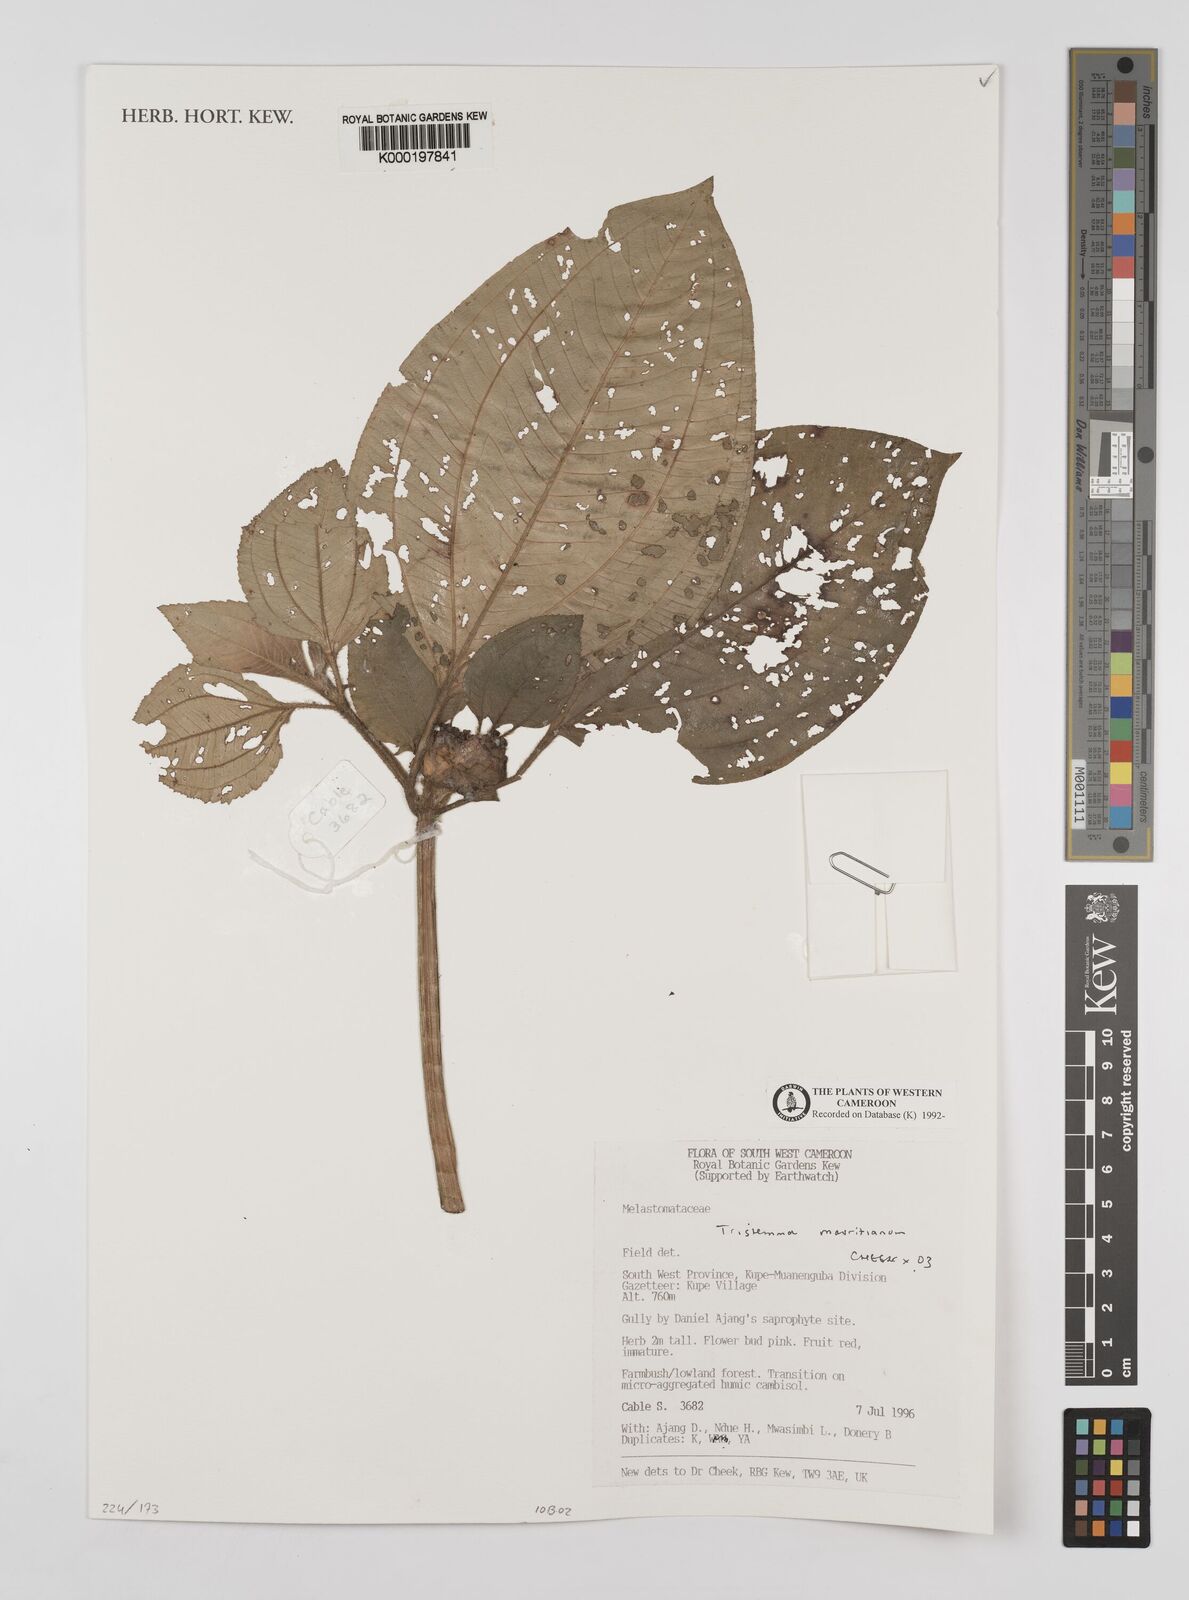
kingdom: Plantae
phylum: Tracheophyta
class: Magnoliopsida
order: Myrtales
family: Melastomataceae
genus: Tristemma
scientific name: Tristemma
